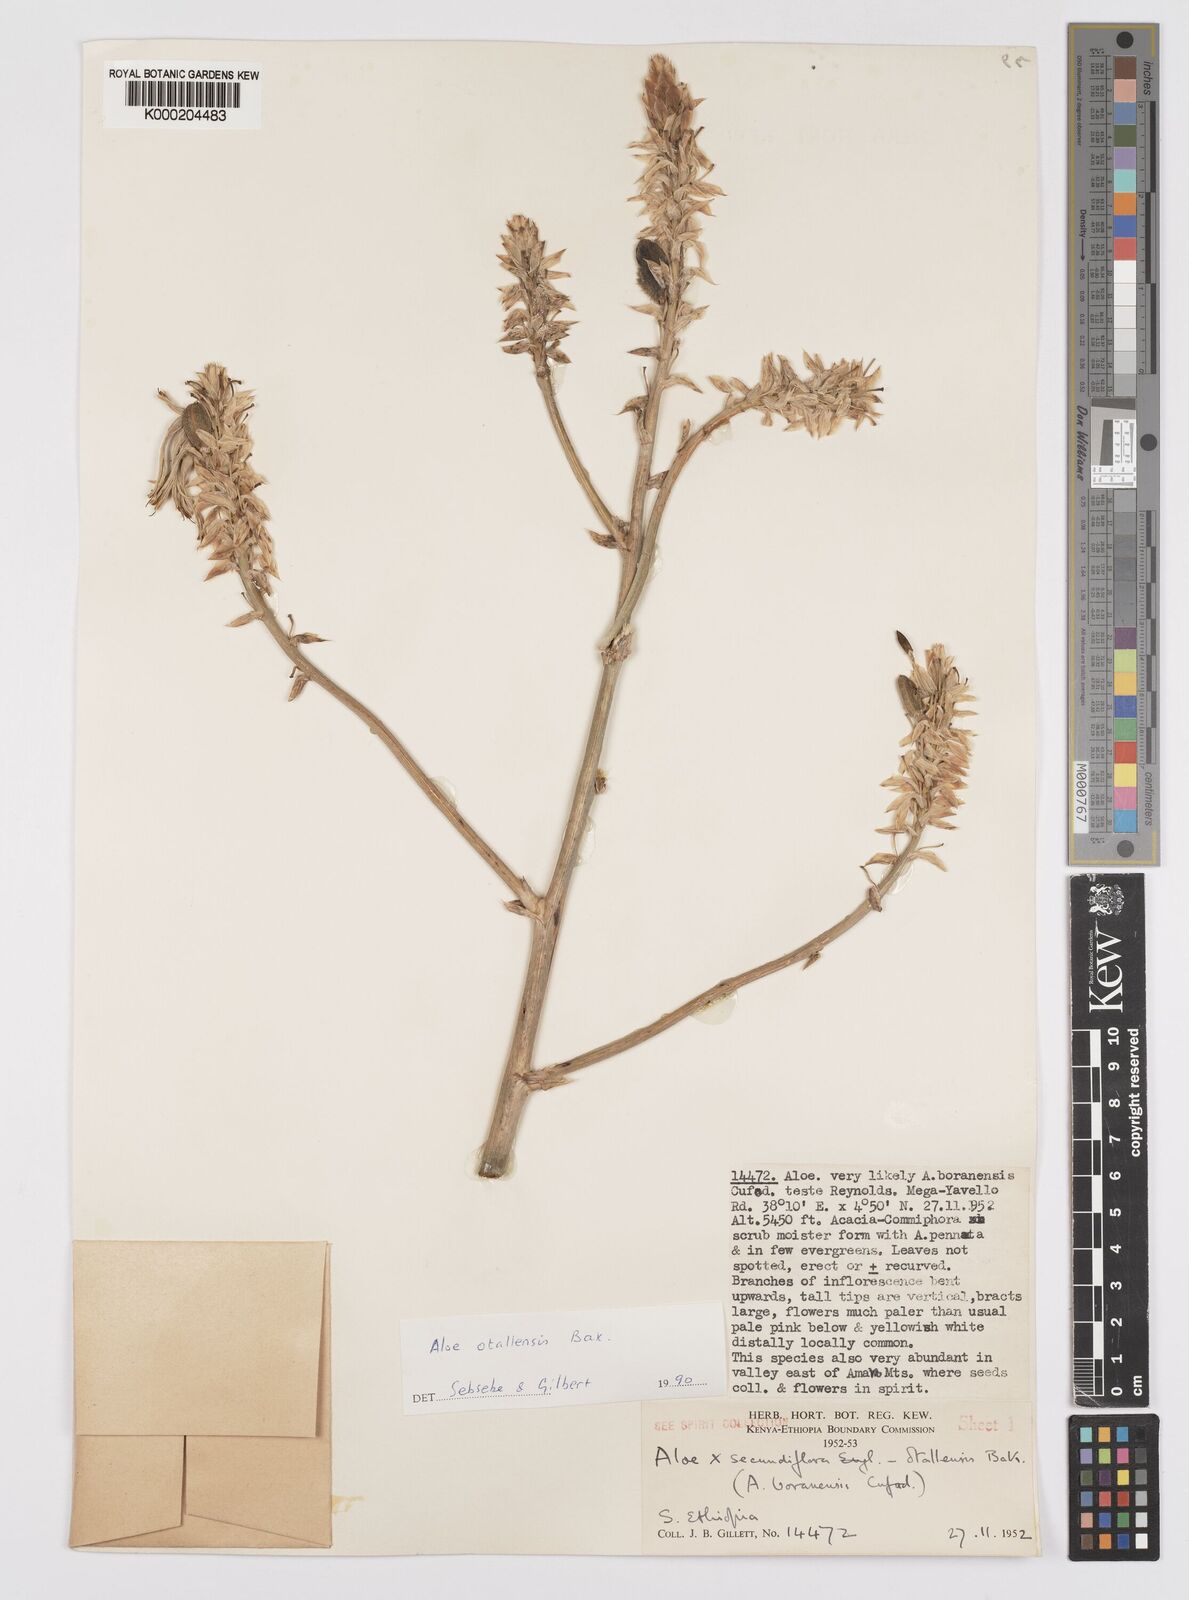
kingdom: Plantae
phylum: Tracheophyta
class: Liliopsida
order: Asparagales
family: Asphodelaceae
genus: Aloe
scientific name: Aloe otallensis
